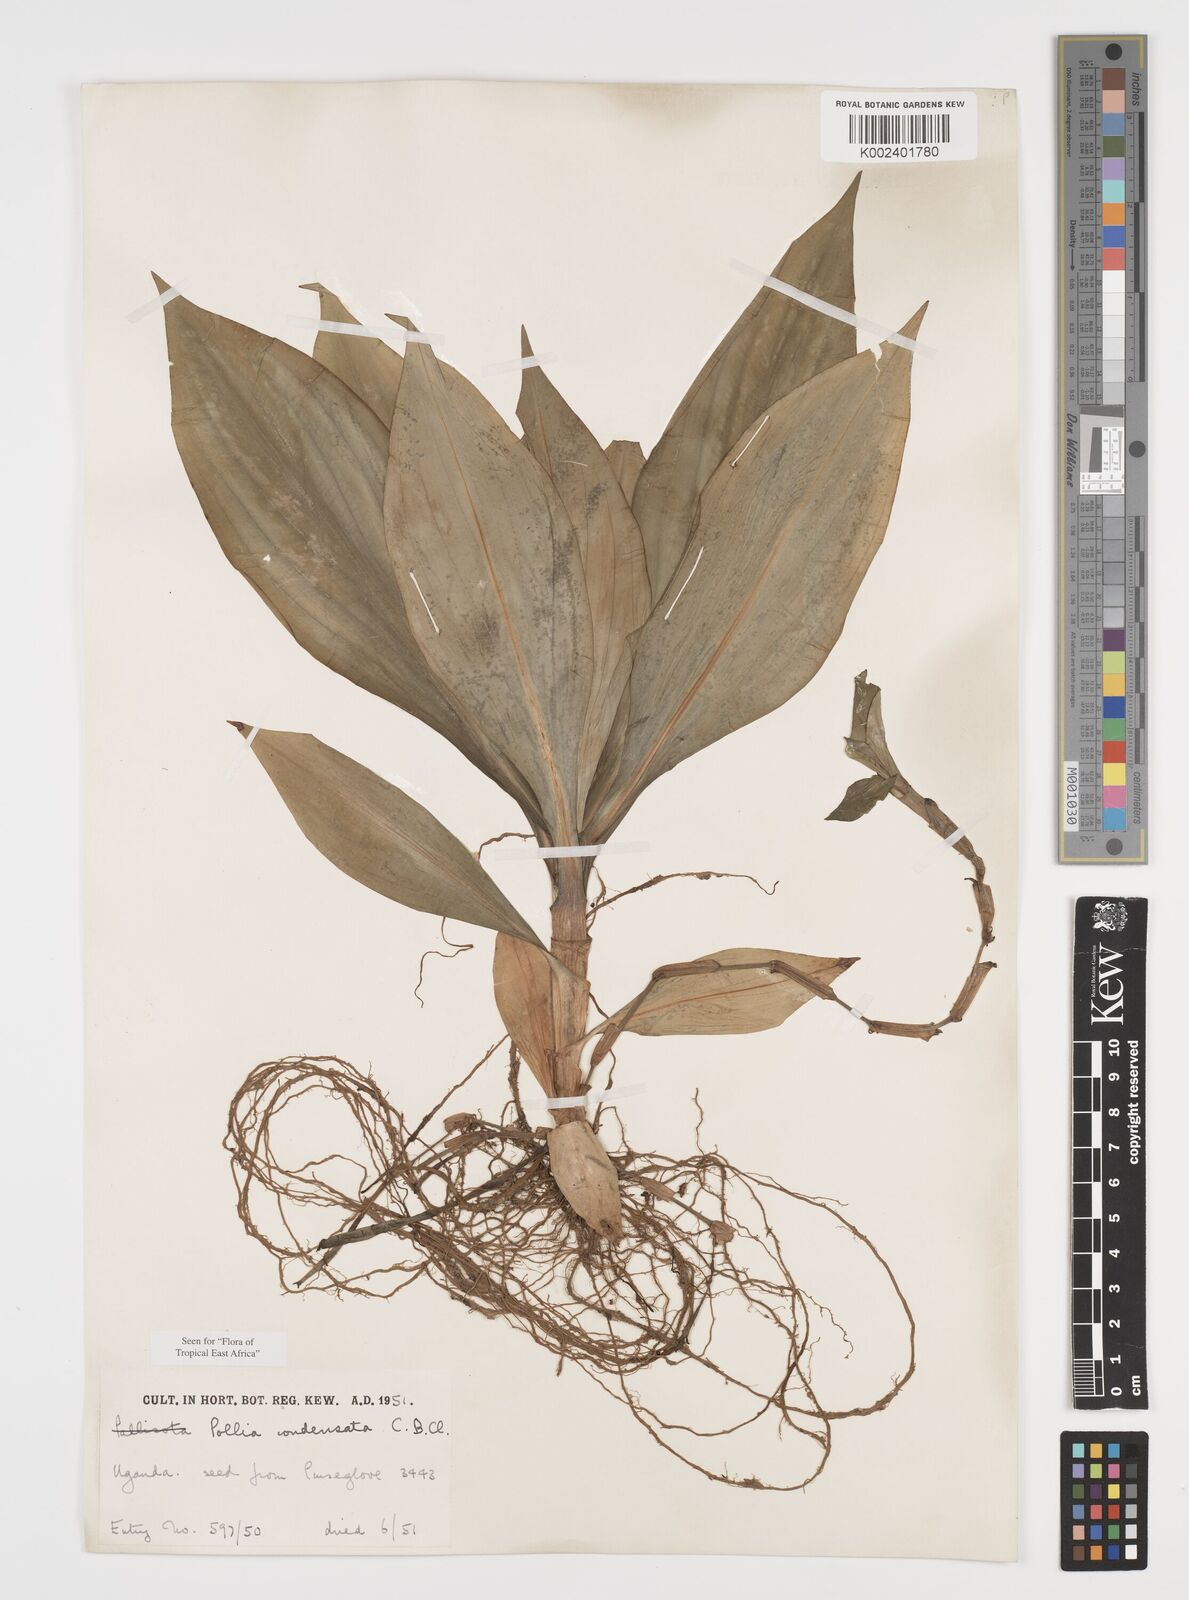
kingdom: Plantae
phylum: Tracheophyta
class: Liliopsida
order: Commelinales
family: Commelinaceae
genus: Pollia
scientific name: Pollia condensata
